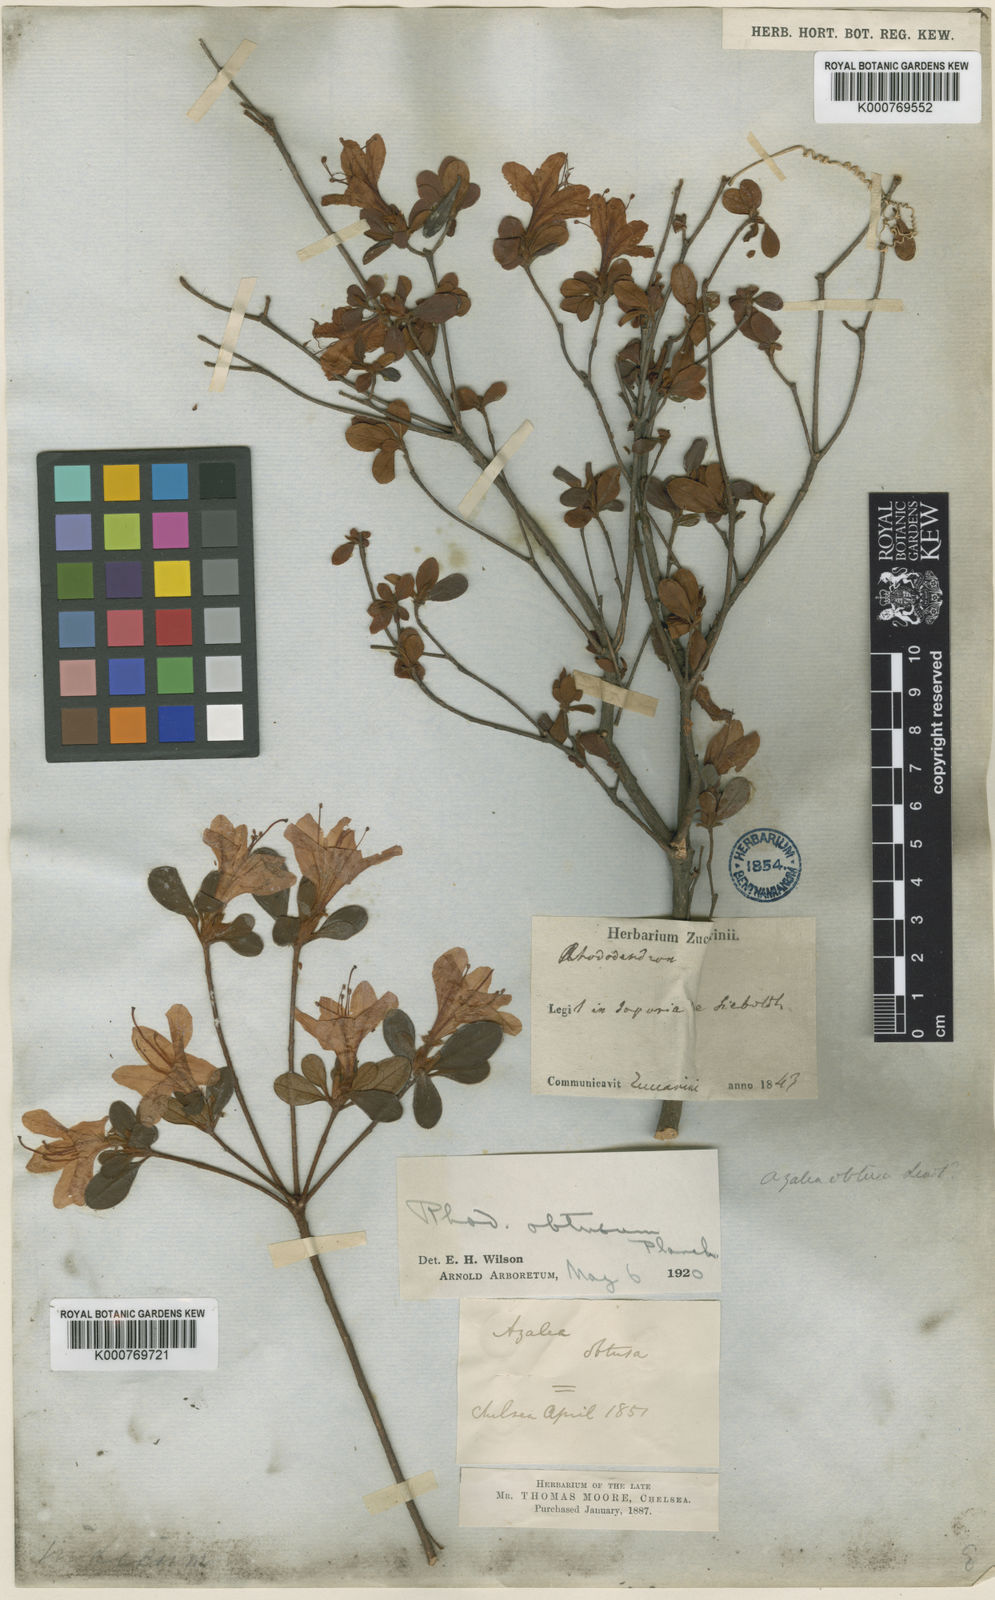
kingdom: Plantae
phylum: Tracheophyta
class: Magnoliopsida
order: Ericales
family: Ericaceae
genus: Rhododendron
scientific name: Rhododendron indicum
